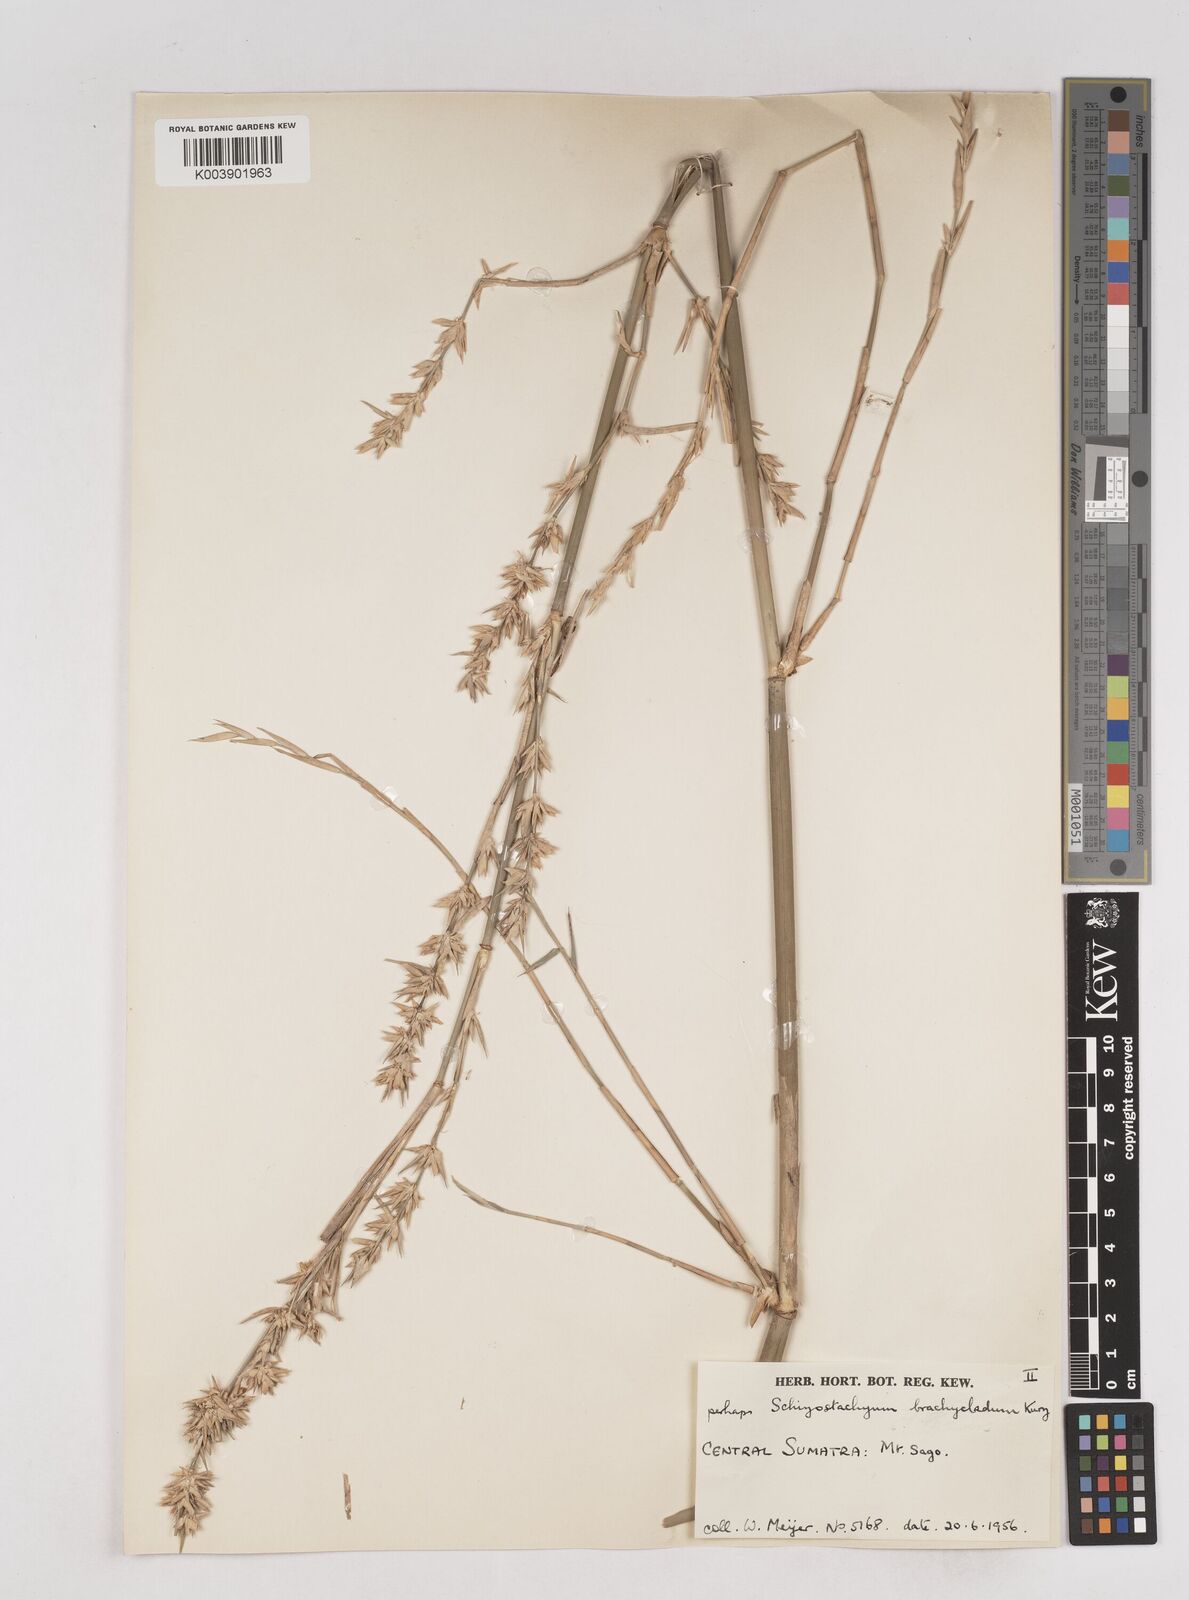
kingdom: Plantae
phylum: Tracheophyta
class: Liliopsida
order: Poales
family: Poaceae
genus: Schizostachyum
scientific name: Schizostachyum brachycladum
